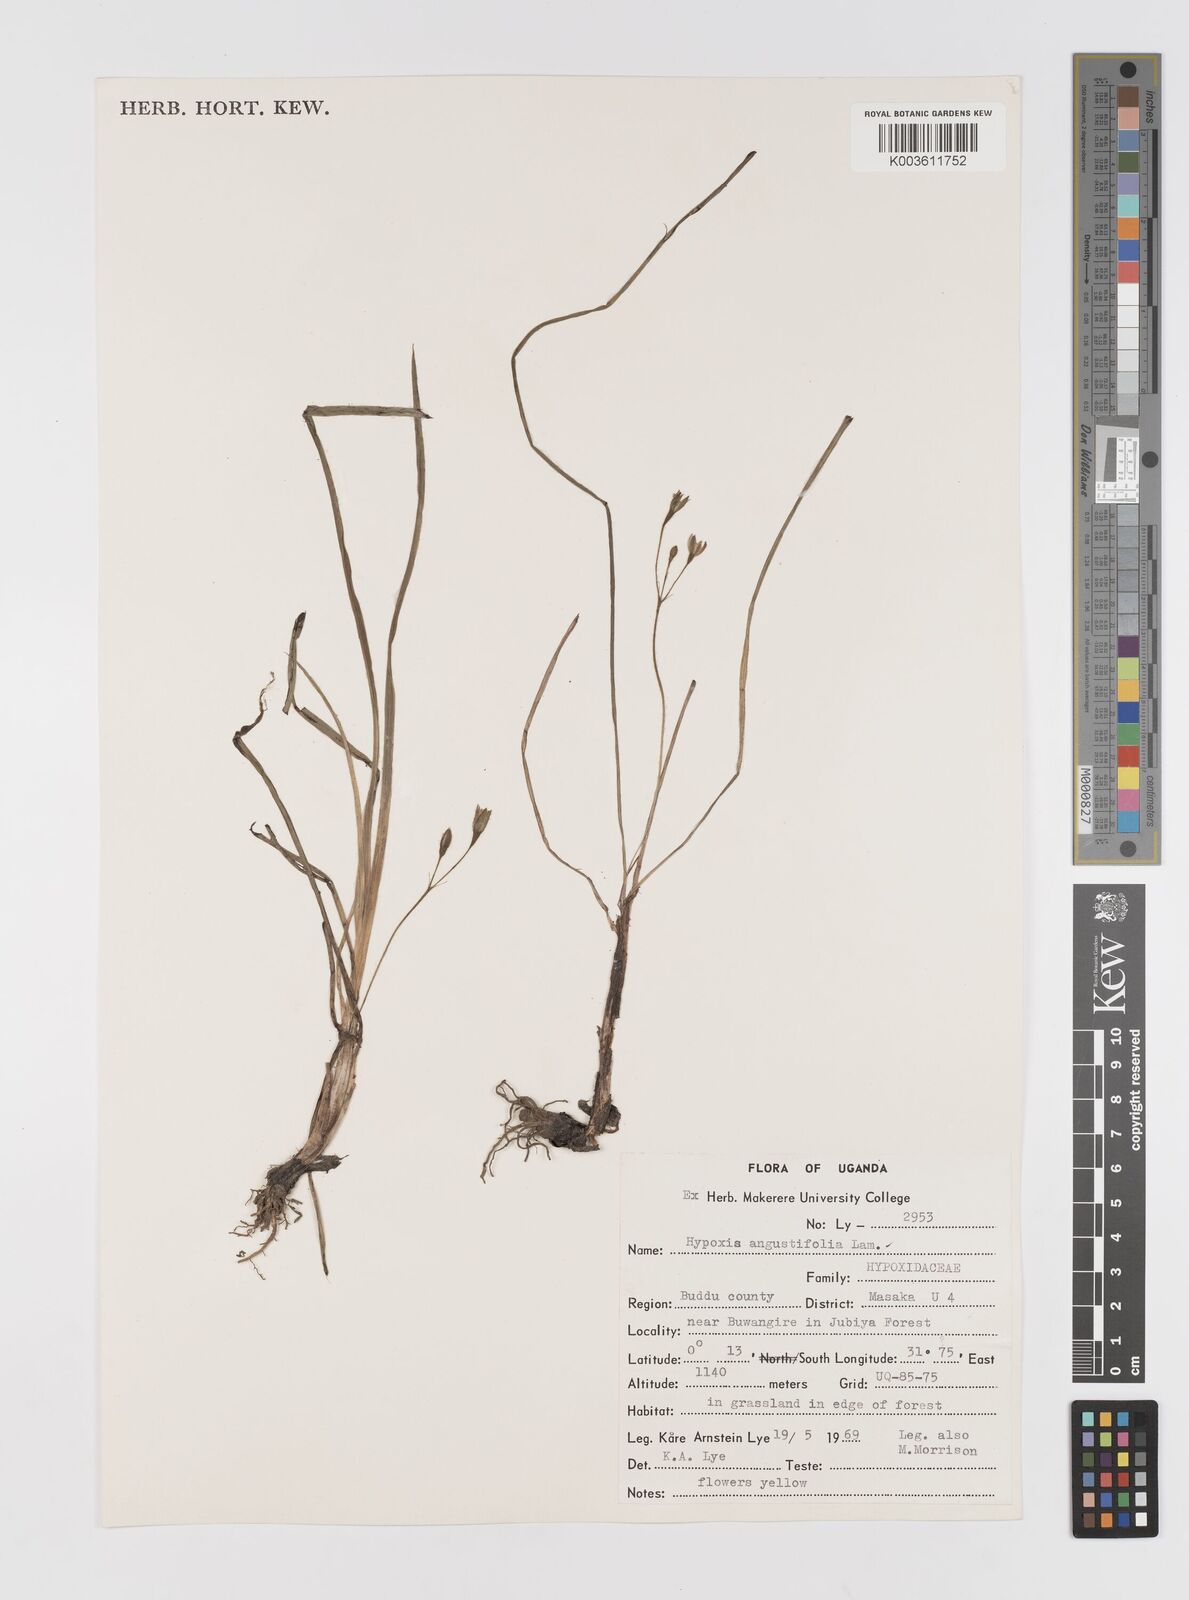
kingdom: Plantae
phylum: Tracheophyta
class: Liliopsida
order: Asparagales
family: Hypoxidaceae
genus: Hypoxis
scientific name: Hypoxis angustifolia
